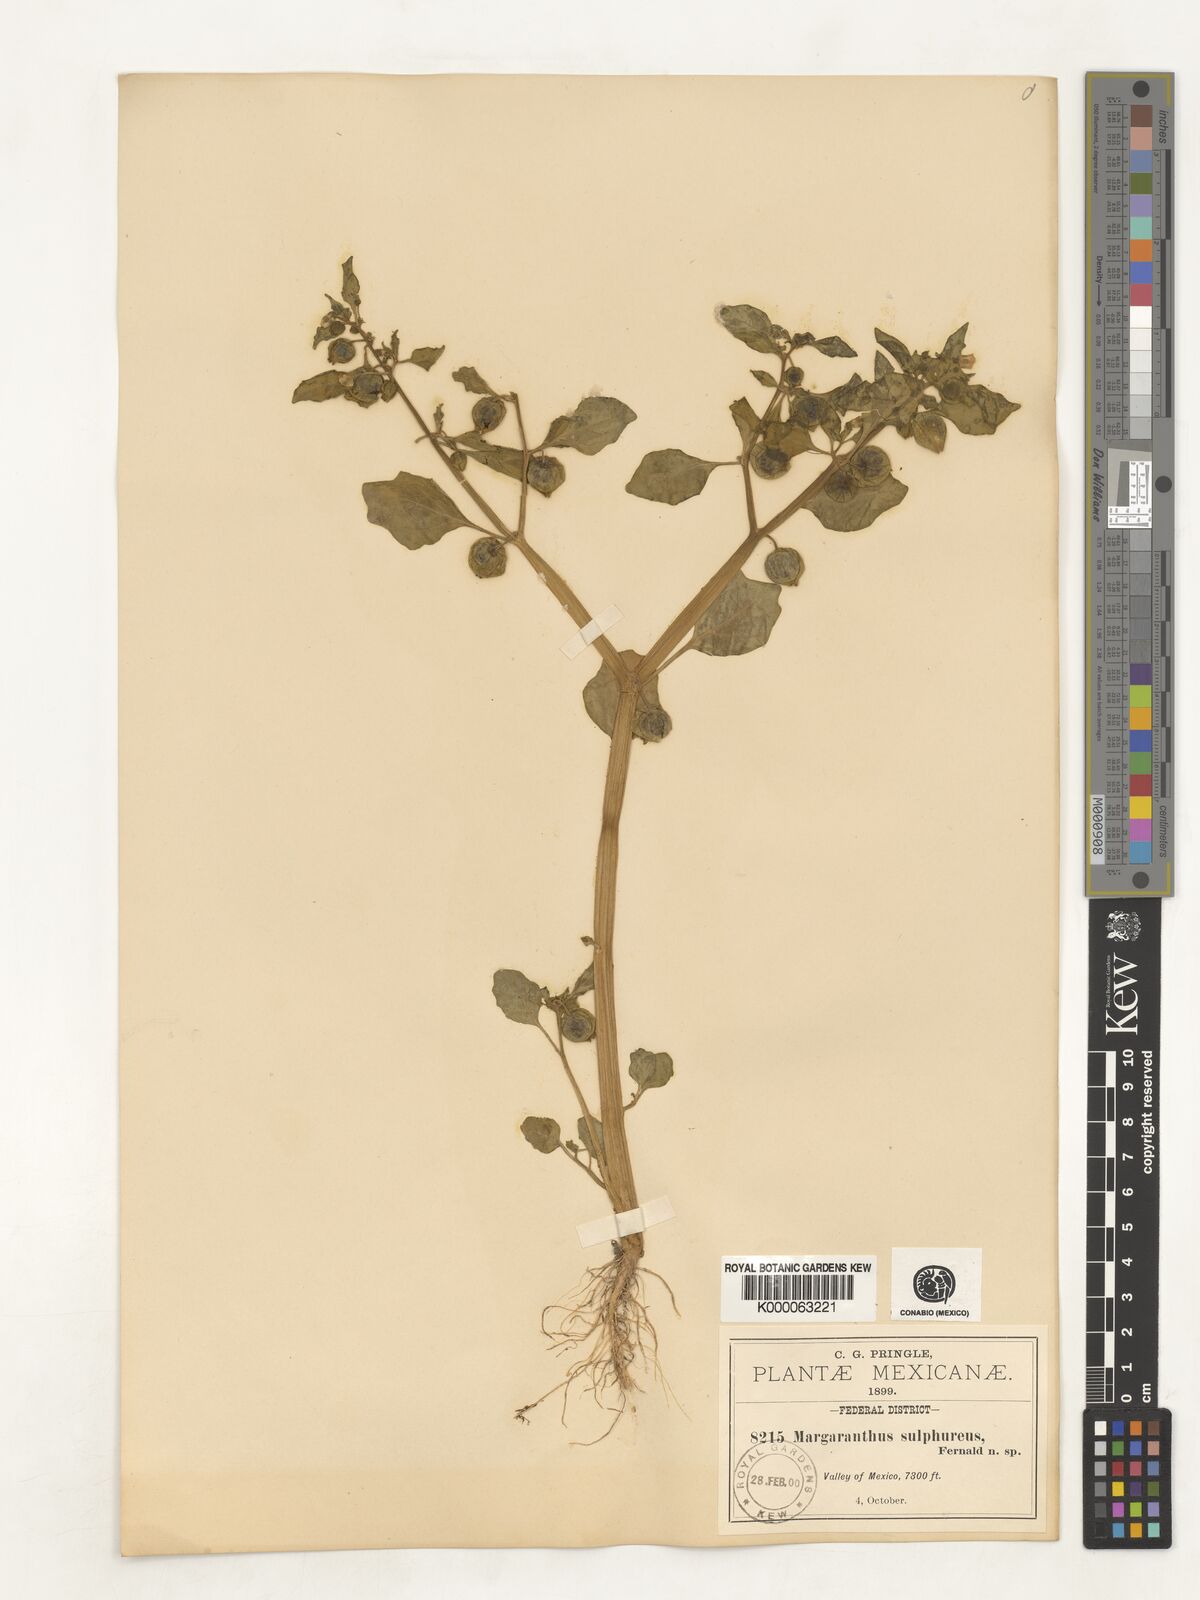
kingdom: Plantae
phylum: Tracheophyta
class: Magnoliopsida
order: Solanales
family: Solanaceae
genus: Physalis
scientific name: Physalis sulphurea
